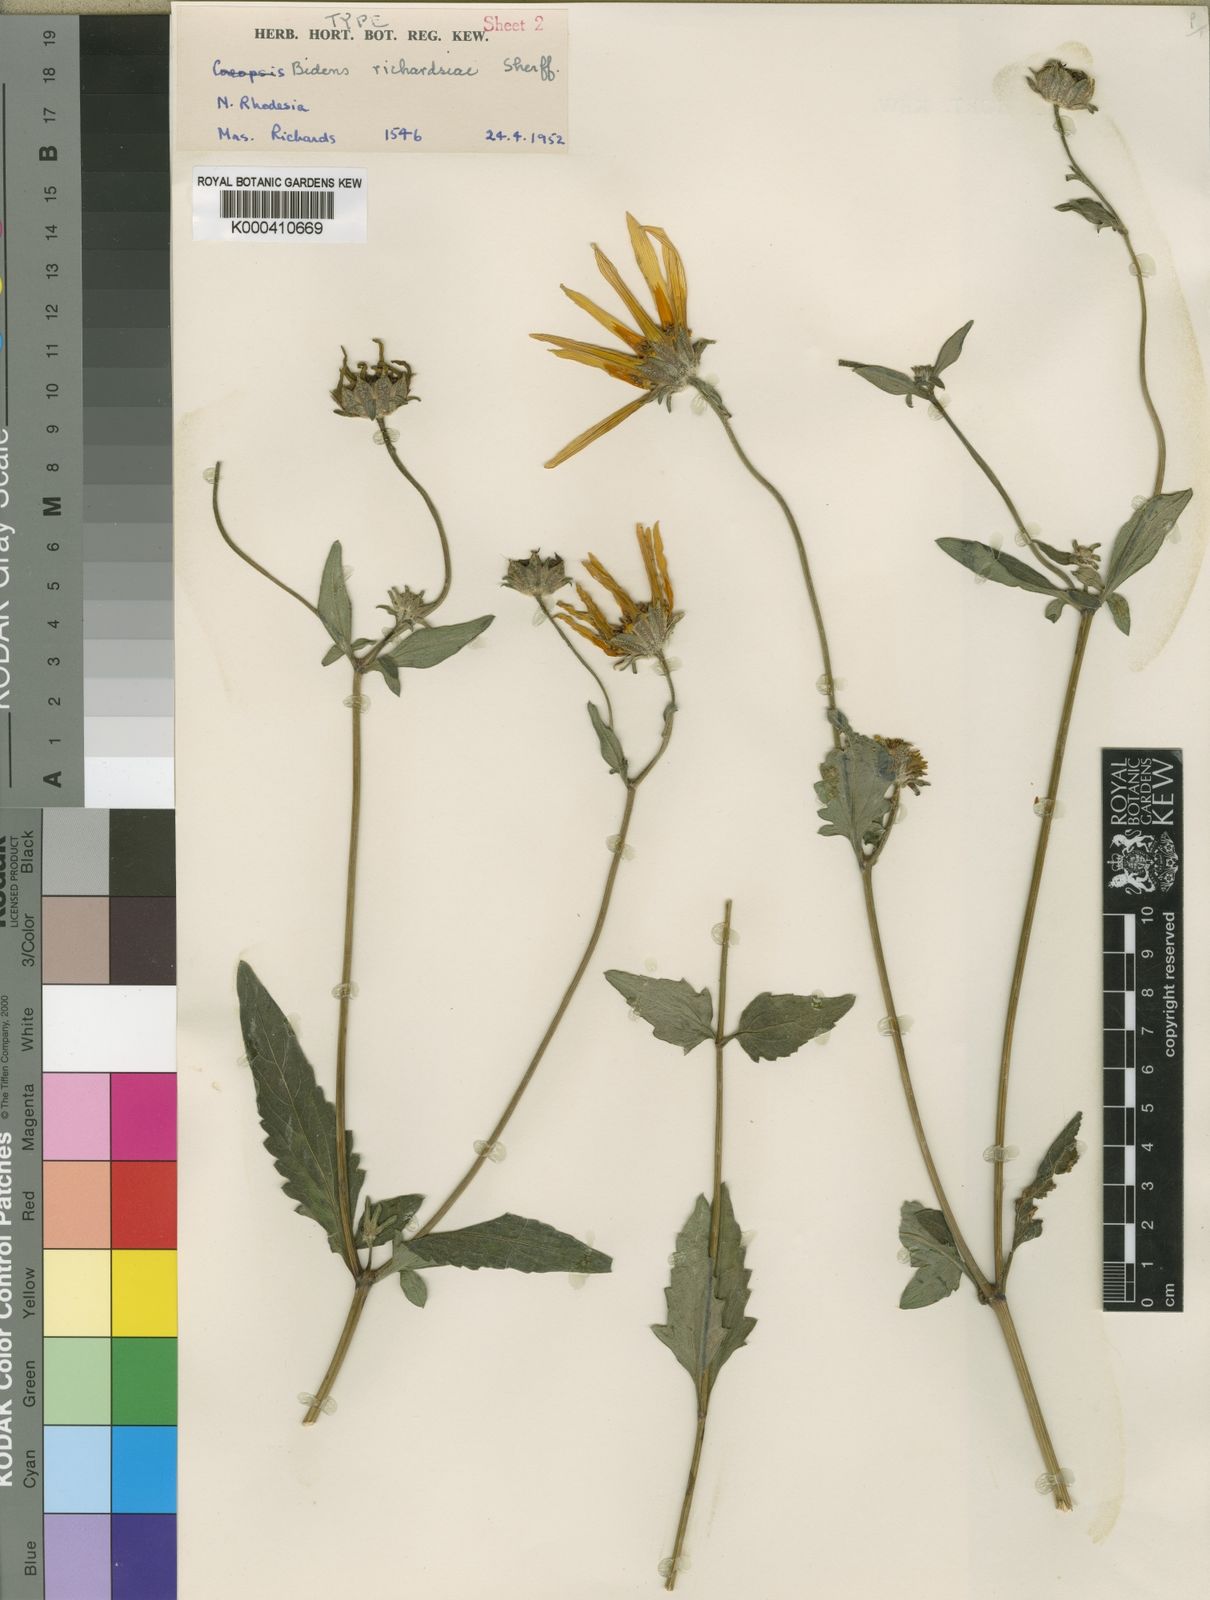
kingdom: Plantae
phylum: Tracheophyta
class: Magnoliopsida
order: Asterales
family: Asteraceae
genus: Bidens
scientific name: Bidens oblonga
